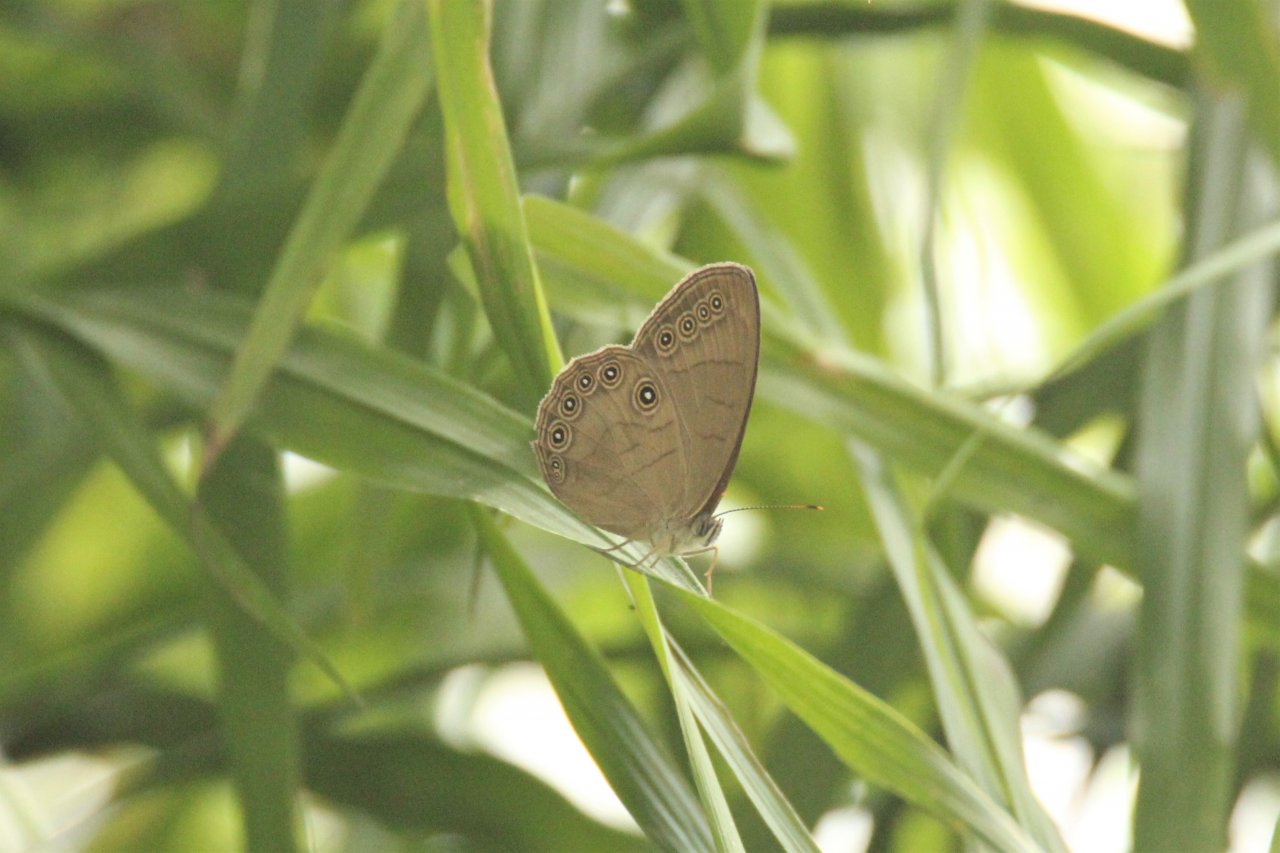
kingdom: Animalia
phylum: Arthropoda
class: Insecta
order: Lepidoptera
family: Nymphalidae
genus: Lethe
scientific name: Lethe eurydice
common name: Appalachian Eyed Brown
